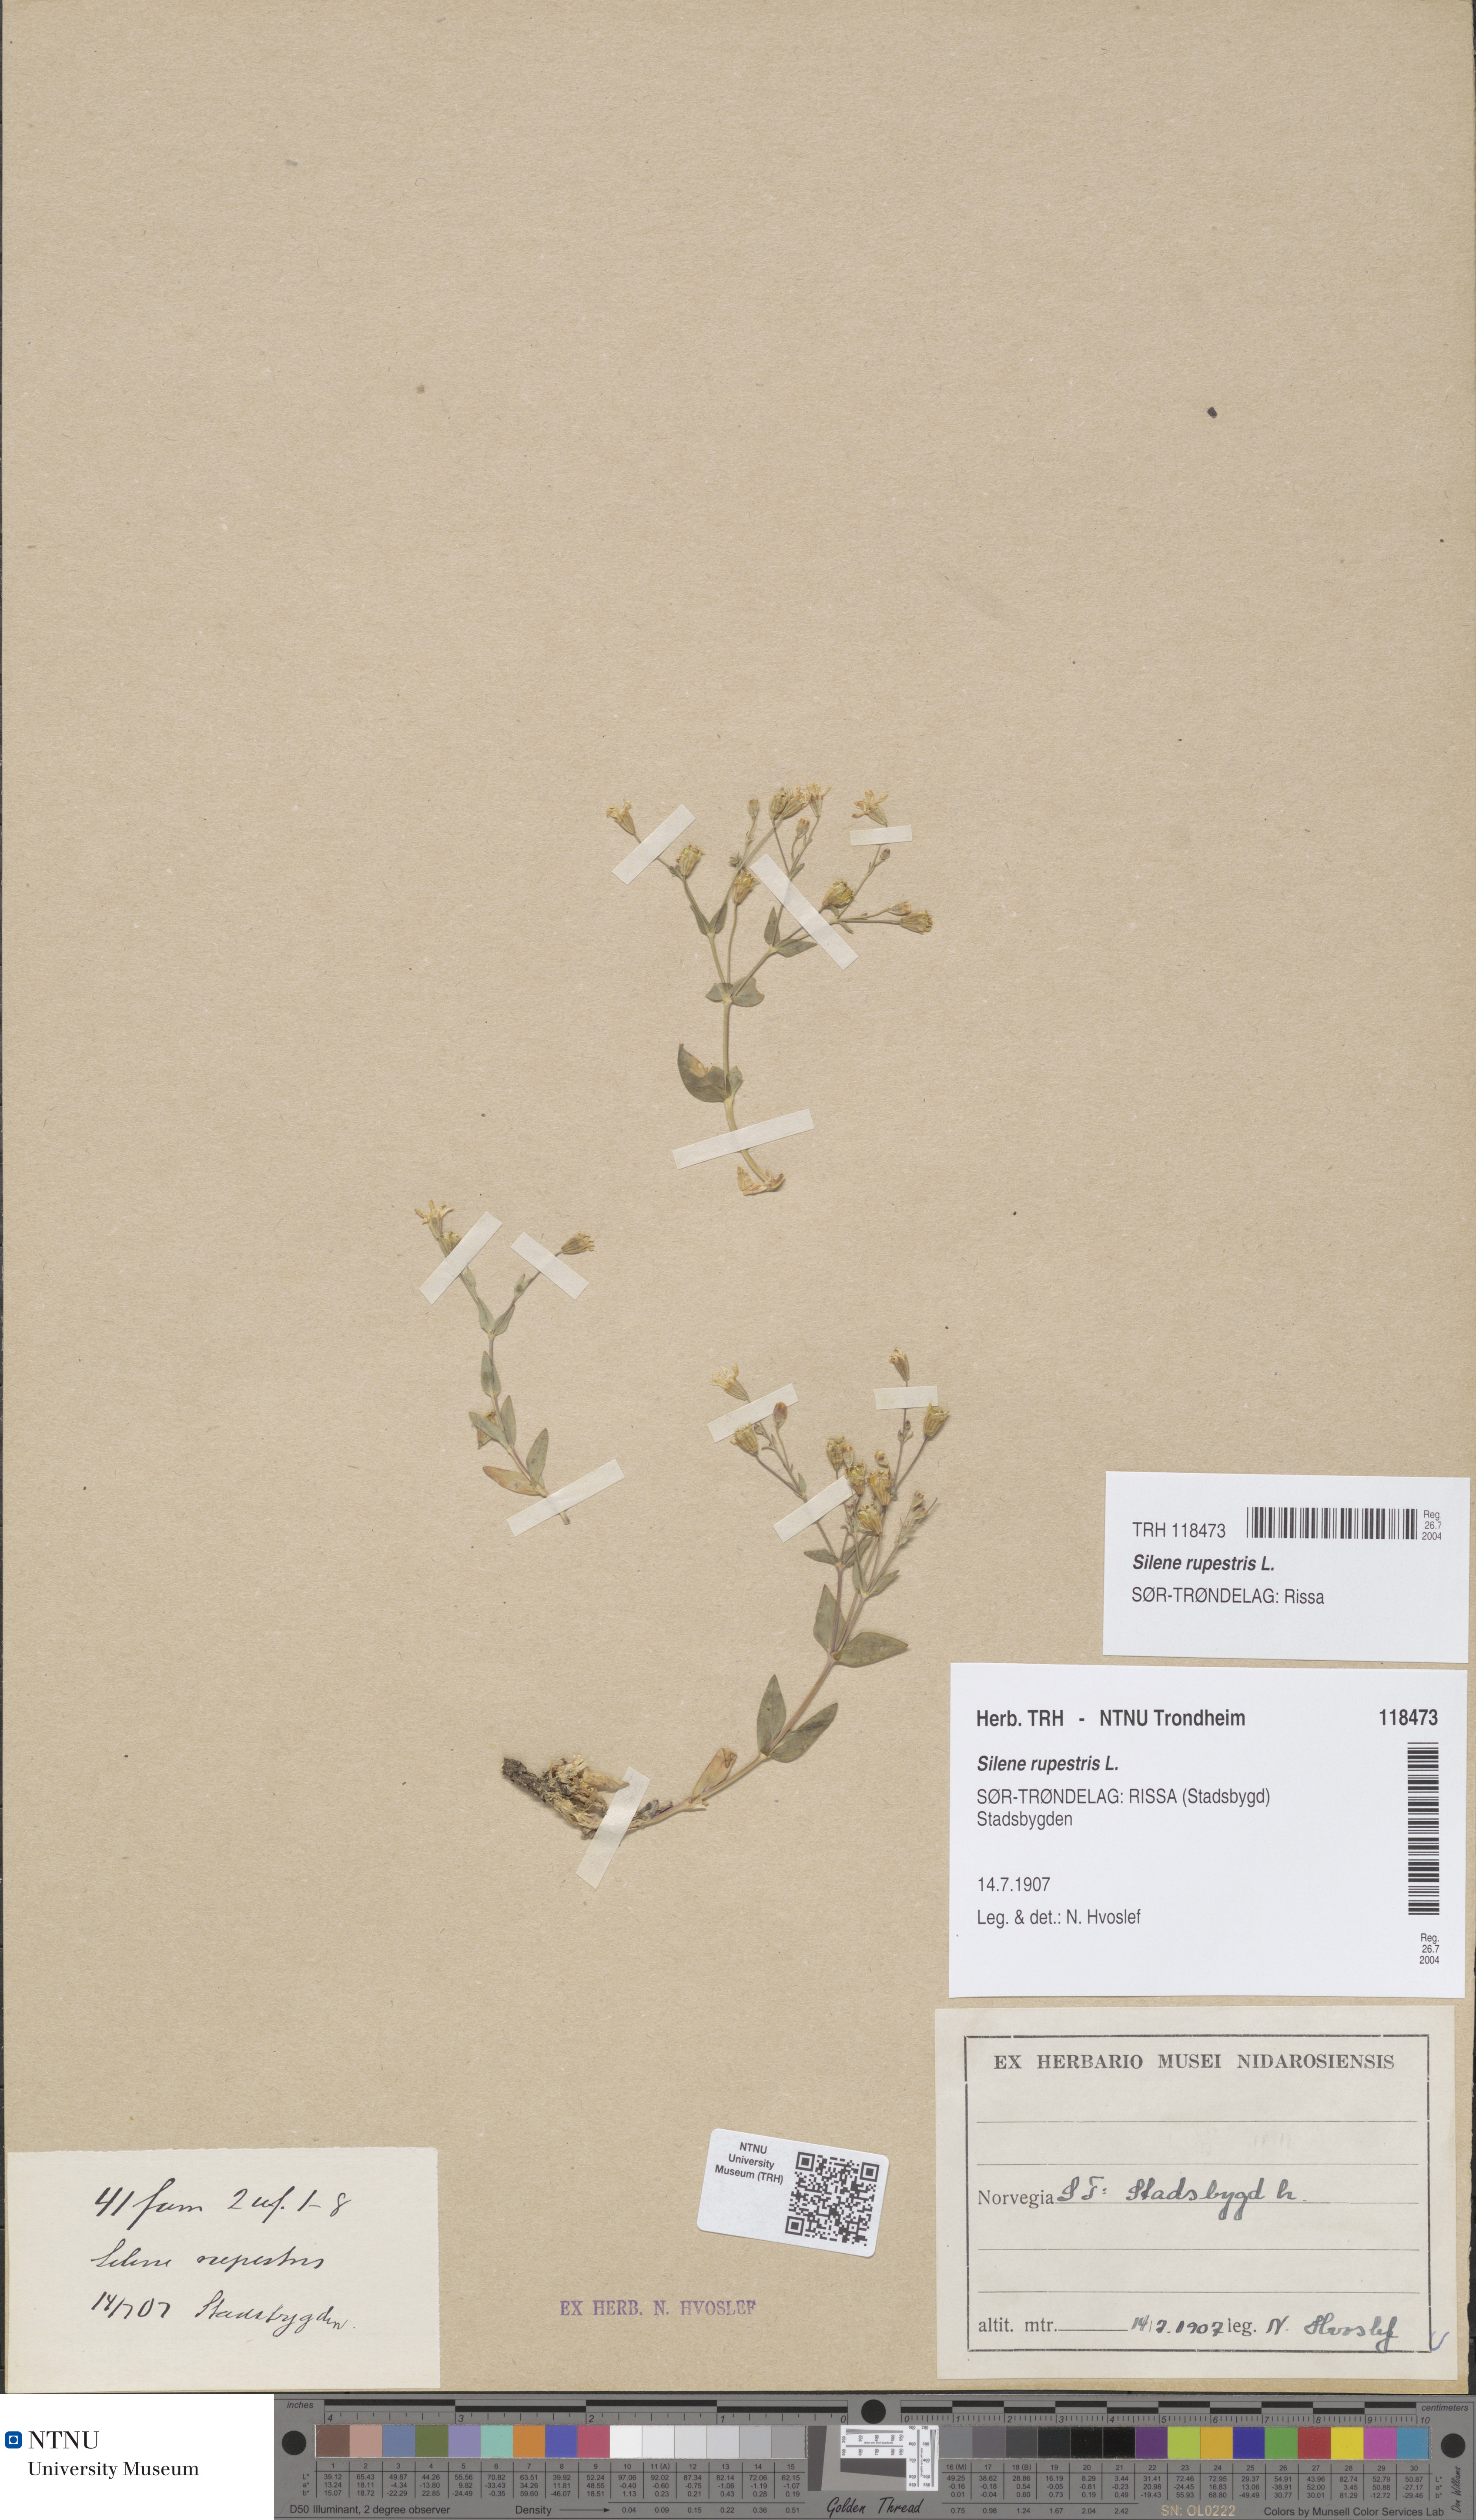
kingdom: Plantae
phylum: Tracheophyta
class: Magnoliopsida
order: Caryophyllales
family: Caryophyllaceae
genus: Atocion
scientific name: Atocion rupestre
